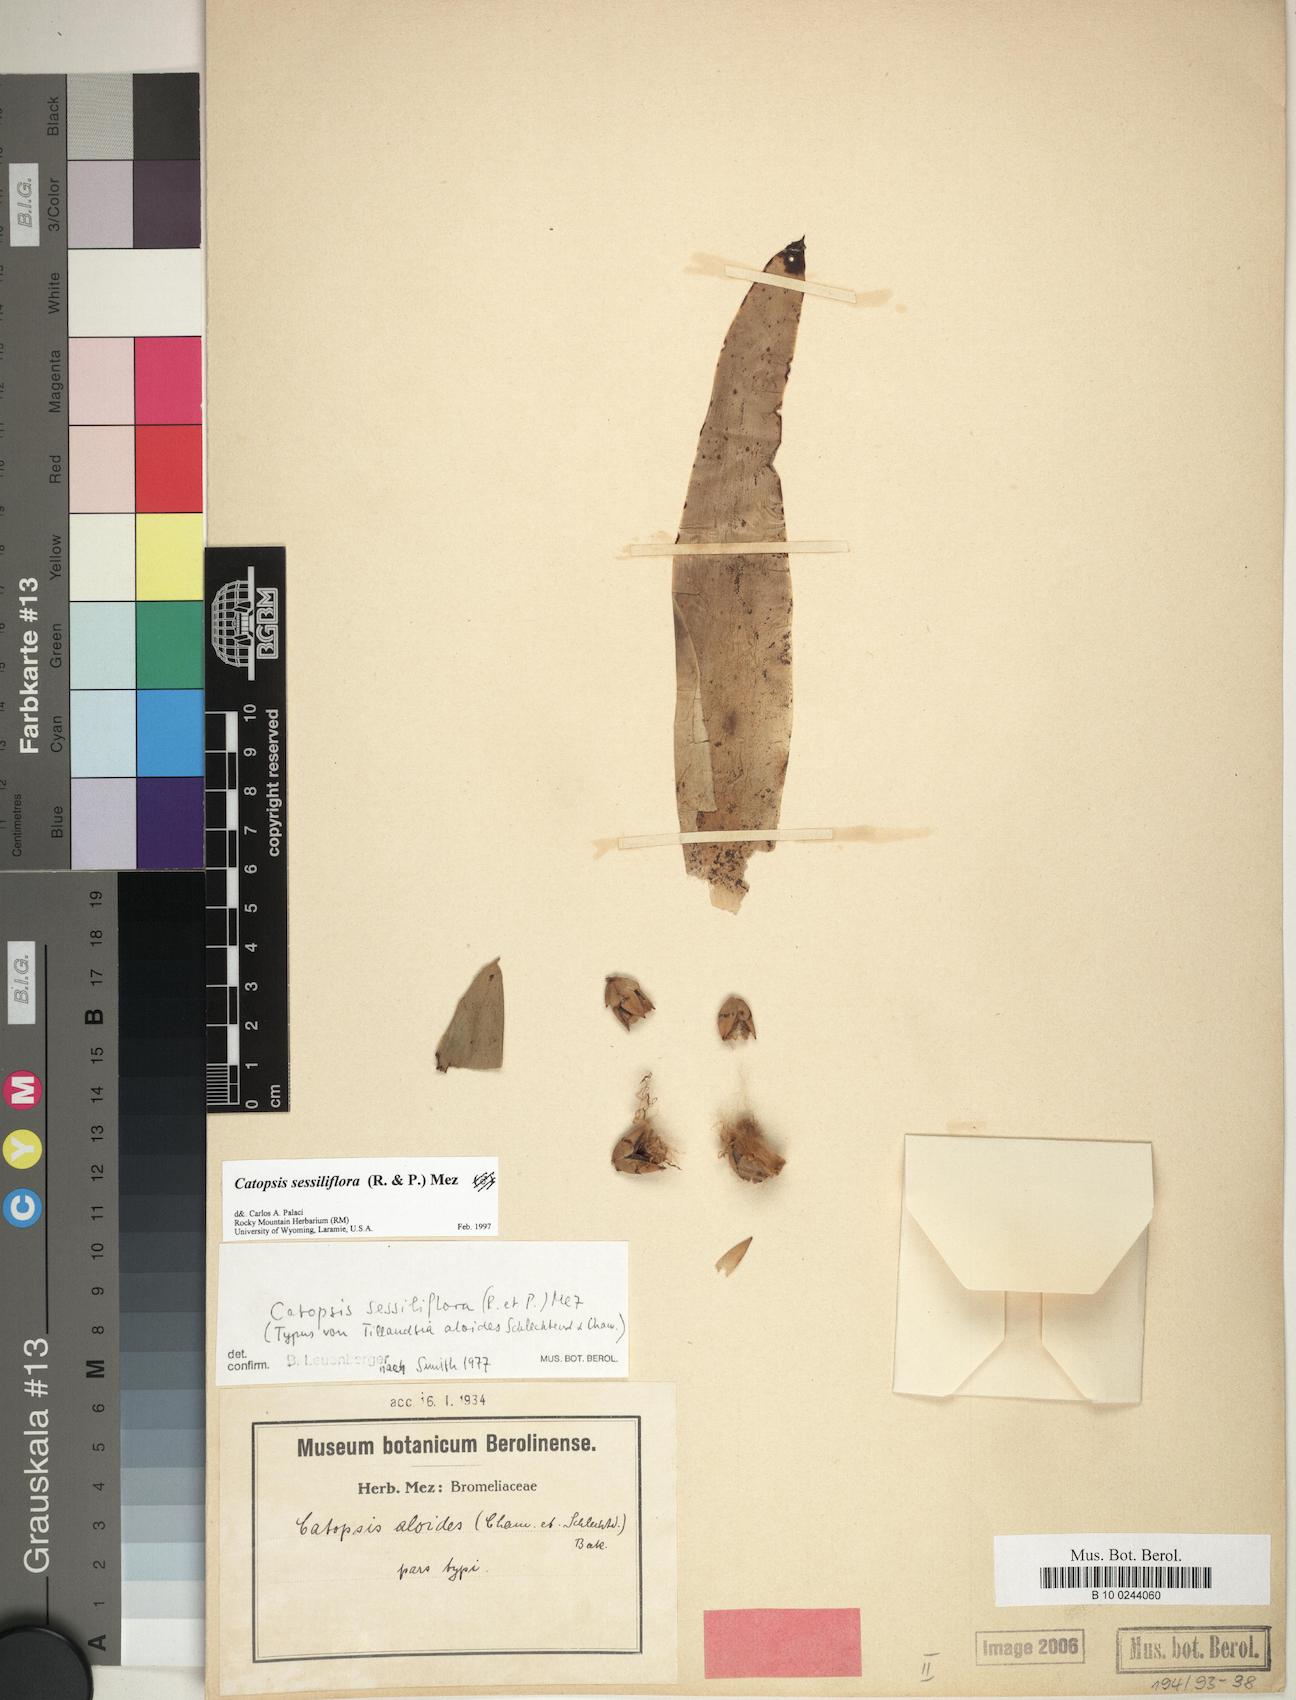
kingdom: Plantae
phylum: Tracheophyta
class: Liliopsida
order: Poales
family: Bromeliaceae
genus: Catopsis
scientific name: Catopsis sessiliflora
